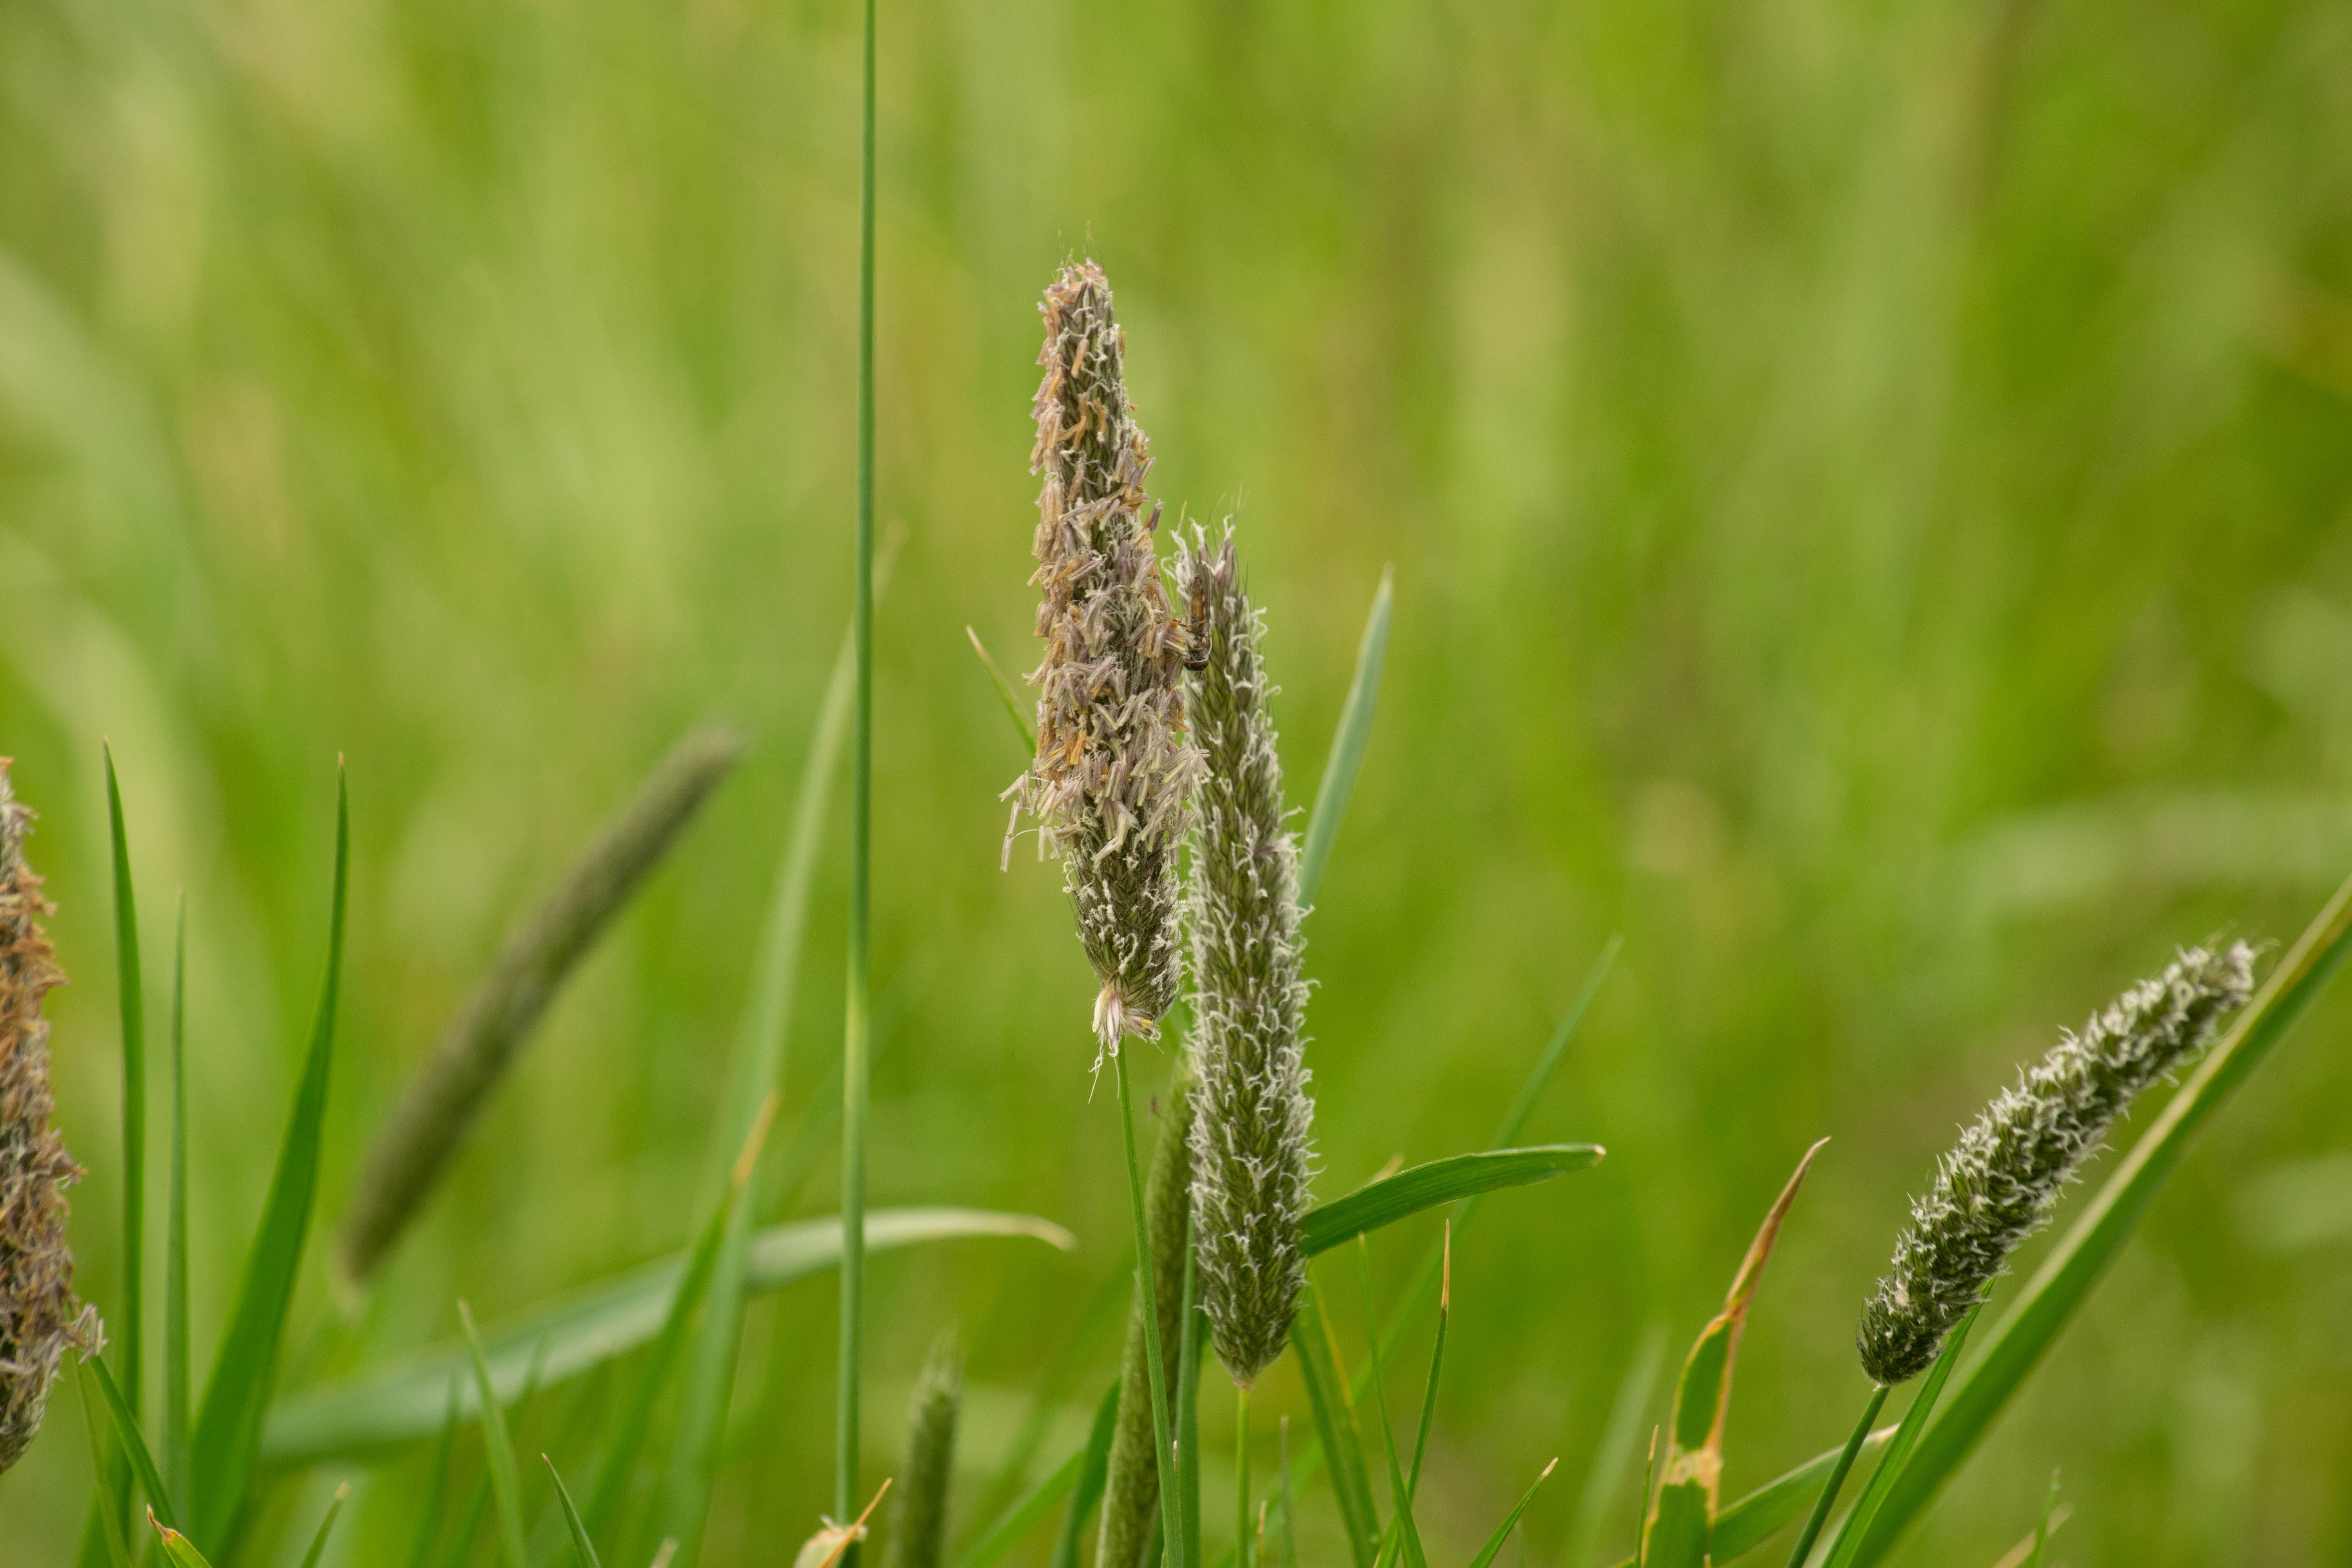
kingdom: Plantae
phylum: Tracheophyta
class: Liliopsida
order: Poales
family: Poaceae
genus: Alopecurus
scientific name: Alopecurus pratensis
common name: Meadow foxtail
